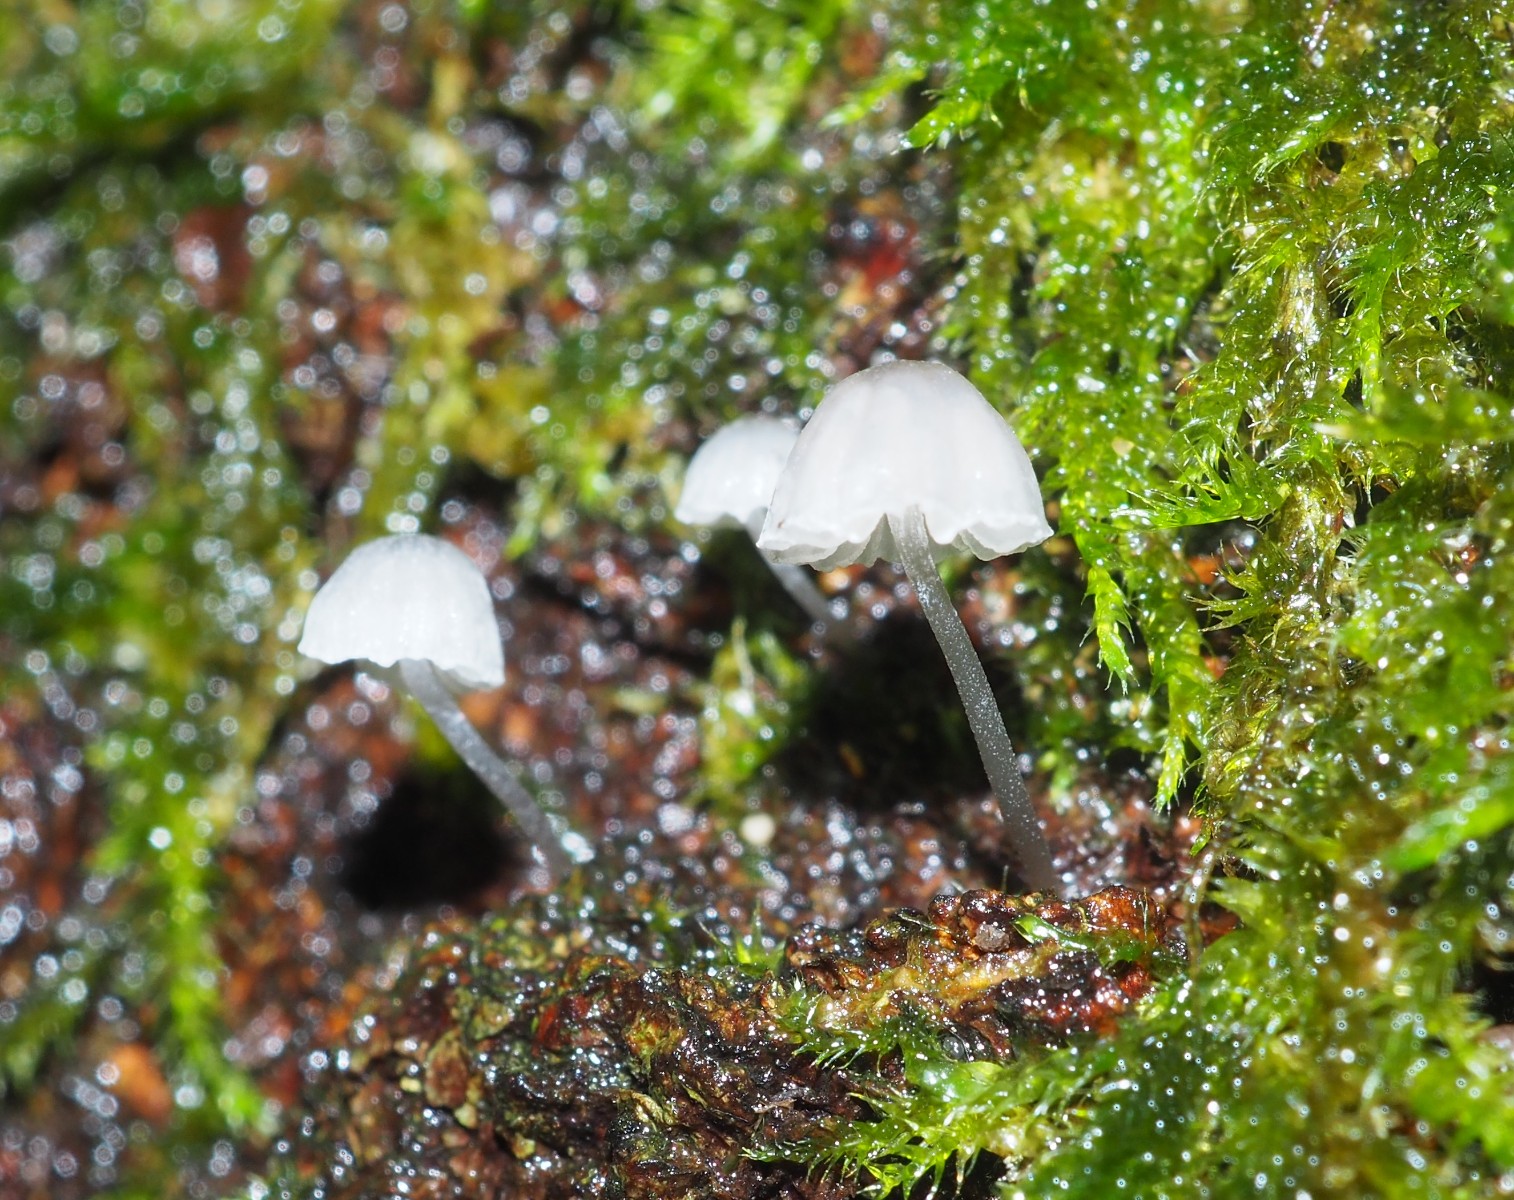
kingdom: Fungi
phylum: Basidiomycota
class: Agaricomycetes
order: Agaricales
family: Mycenaceae
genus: Mycena
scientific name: Mycena pseudocorticola
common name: gråblå bark-huesvamp
